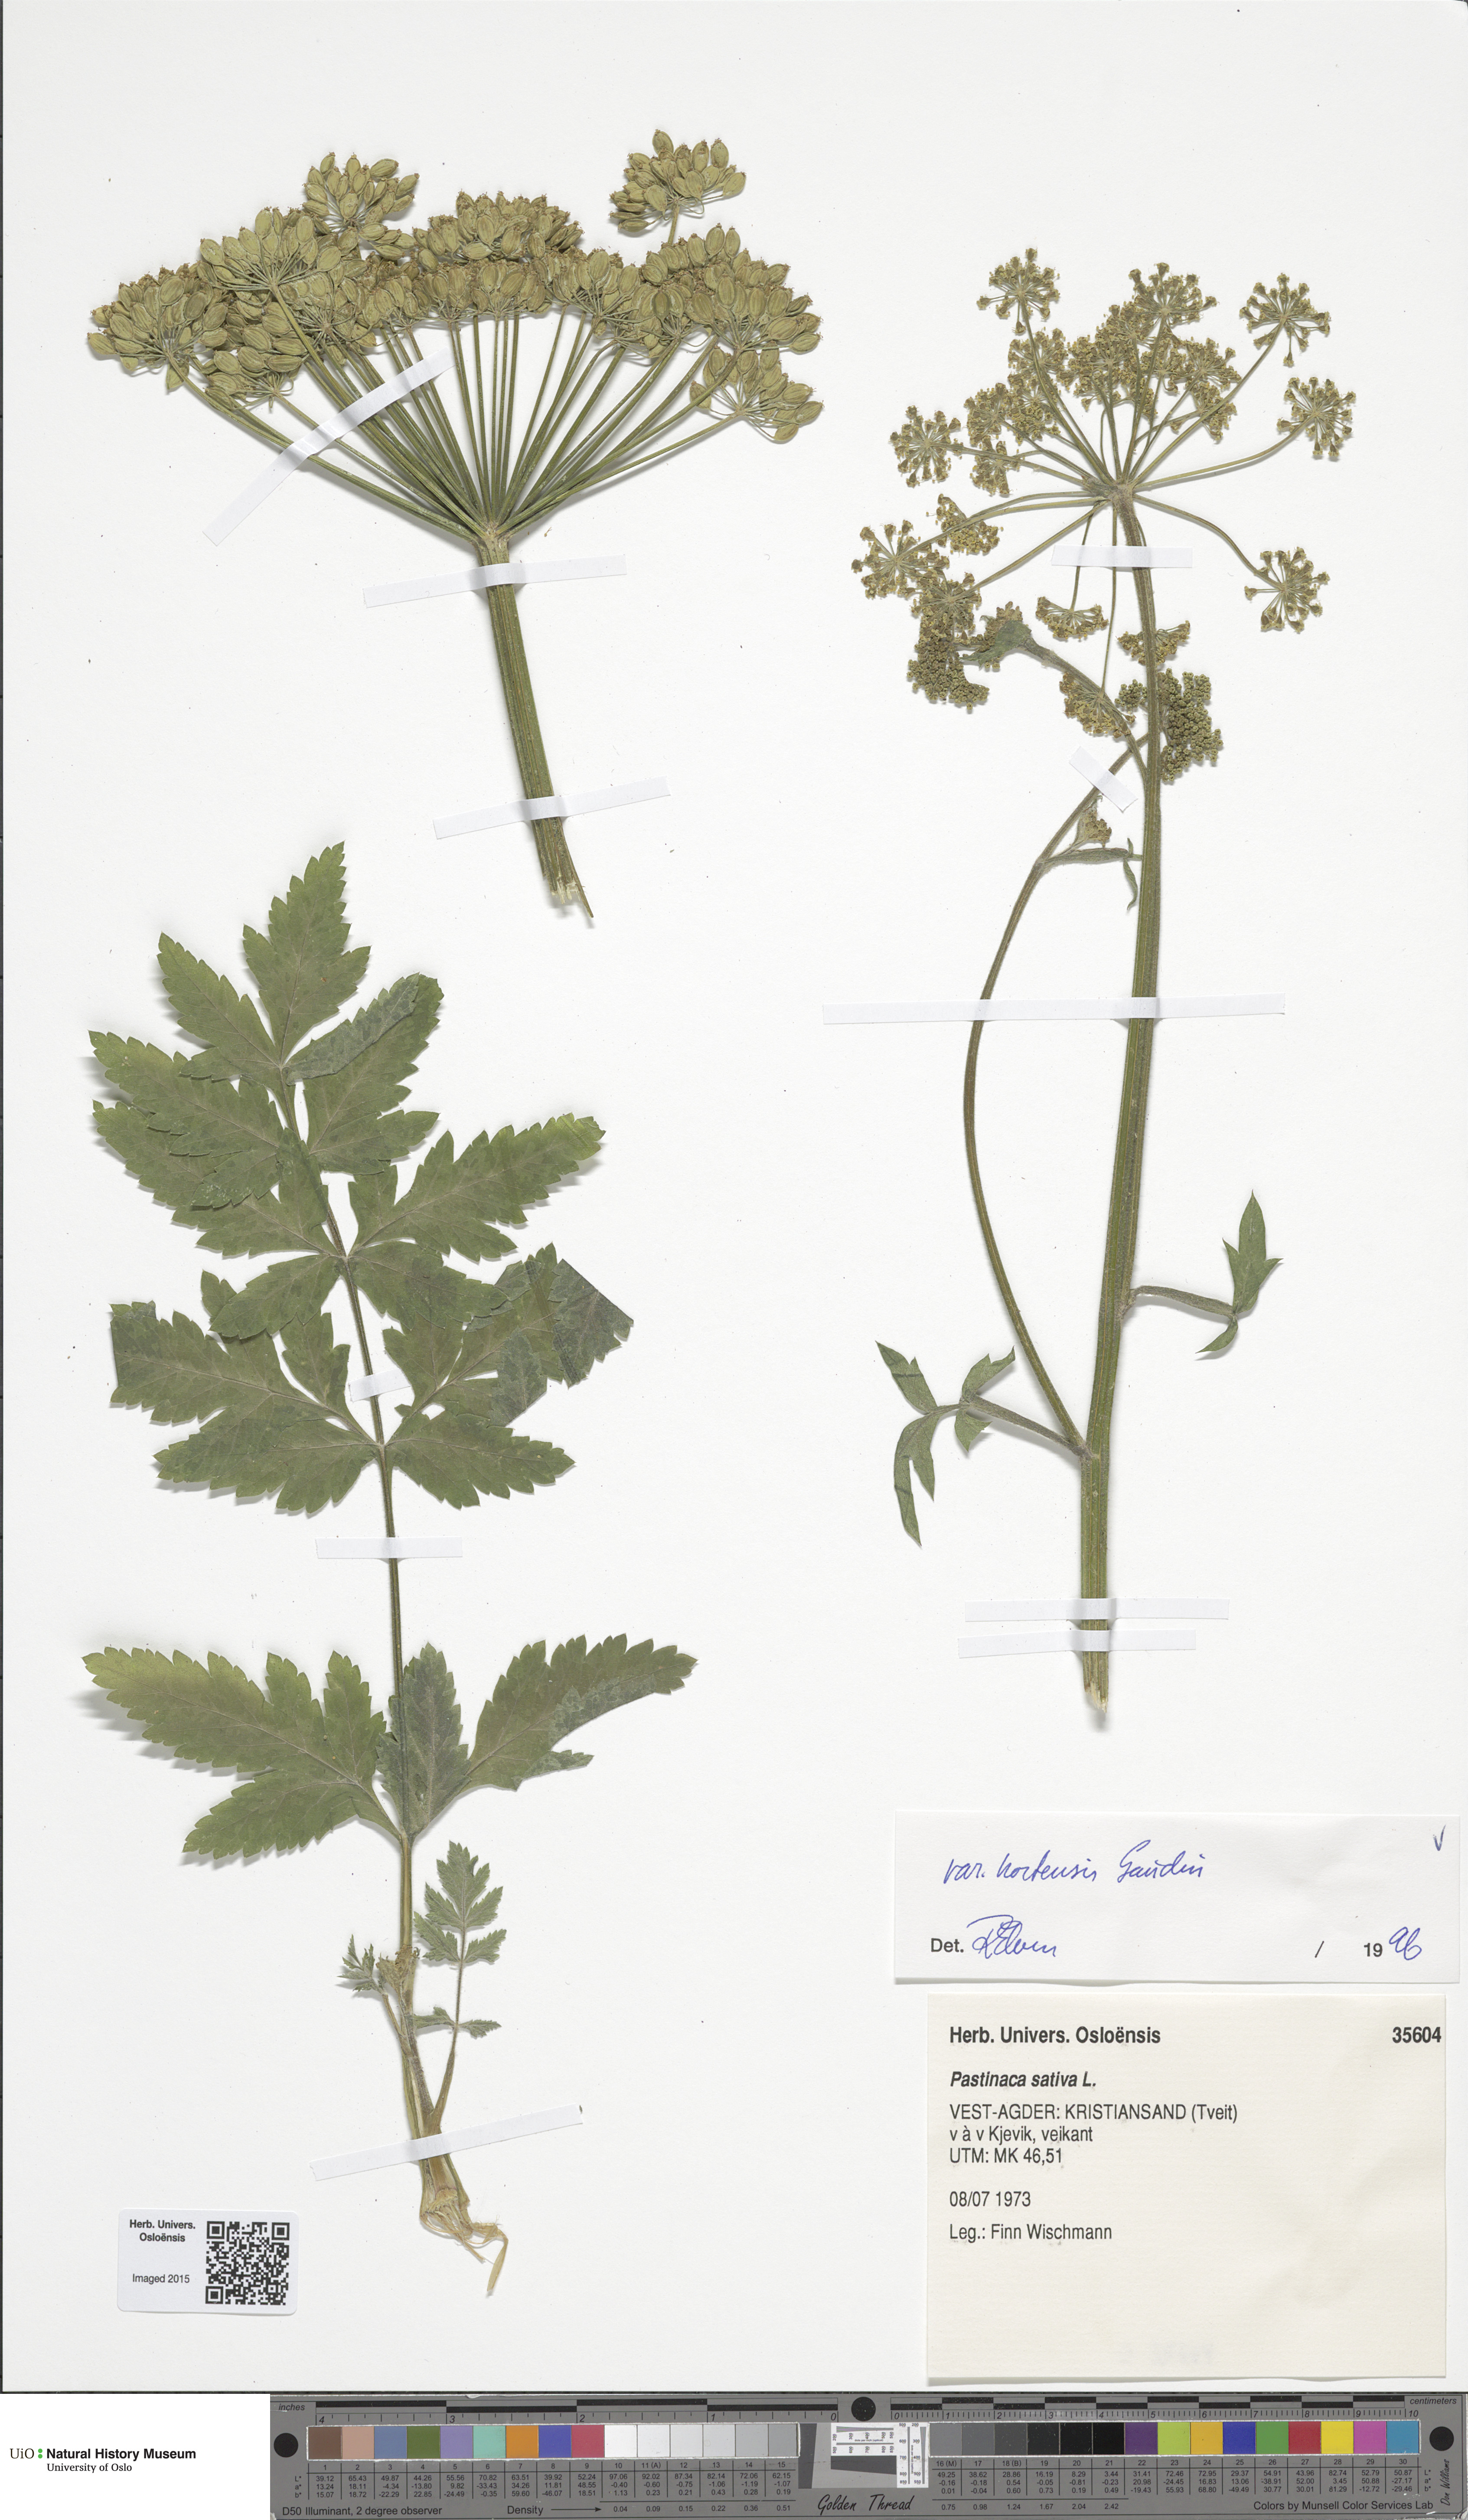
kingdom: Plantae
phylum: Tracheophyta
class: Magnoliopsida
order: Apiales
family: Apiaceae
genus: Pastinaca
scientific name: Pastinaca sativa
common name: Wild parsnip
